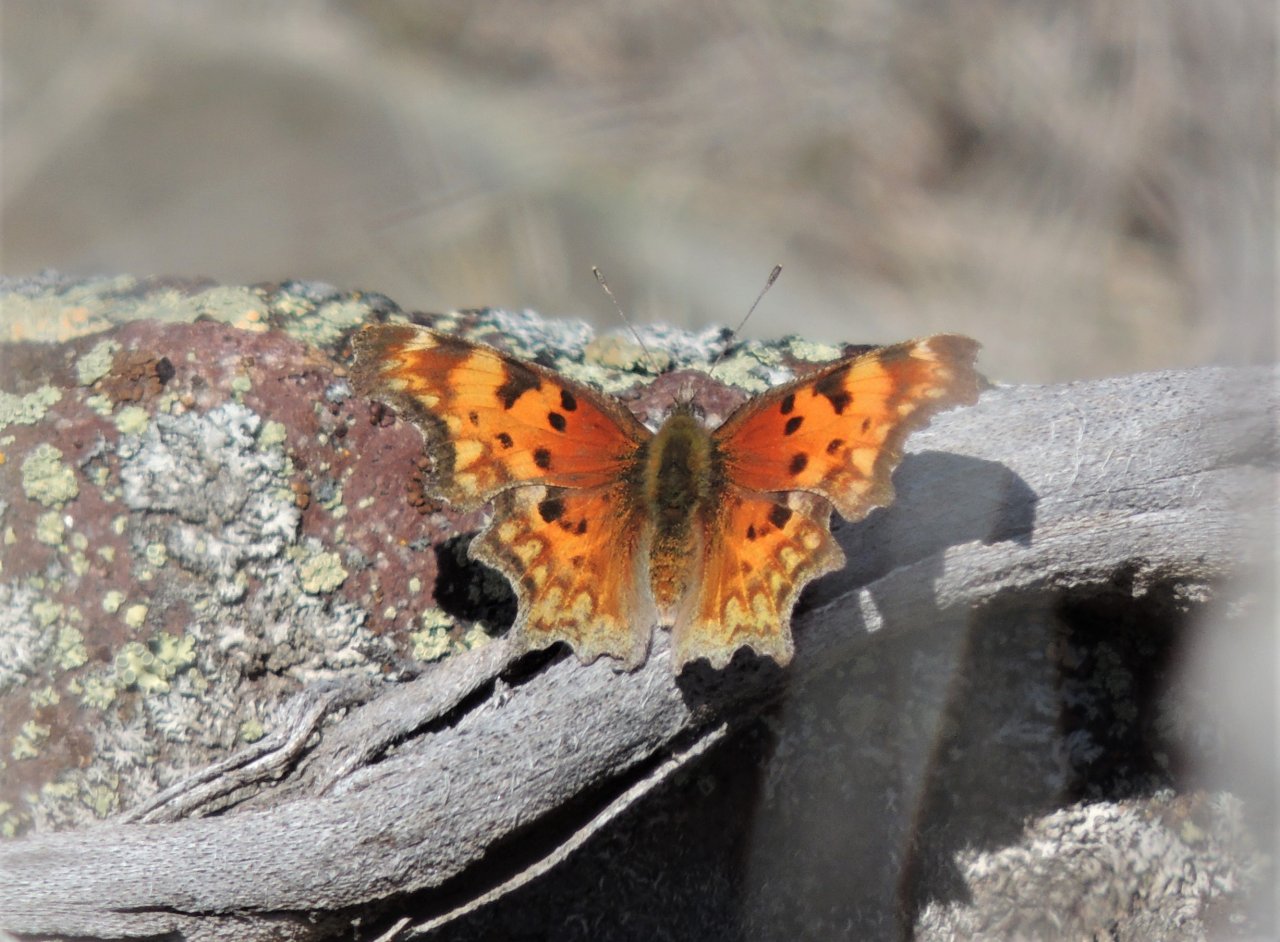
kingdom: Animalia
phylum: Arthropoda
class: Insecta
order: Lepidoptera
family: Nymphalidae
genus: Polygonia
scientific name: Polygonia gracilis
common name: Hoary Comma
